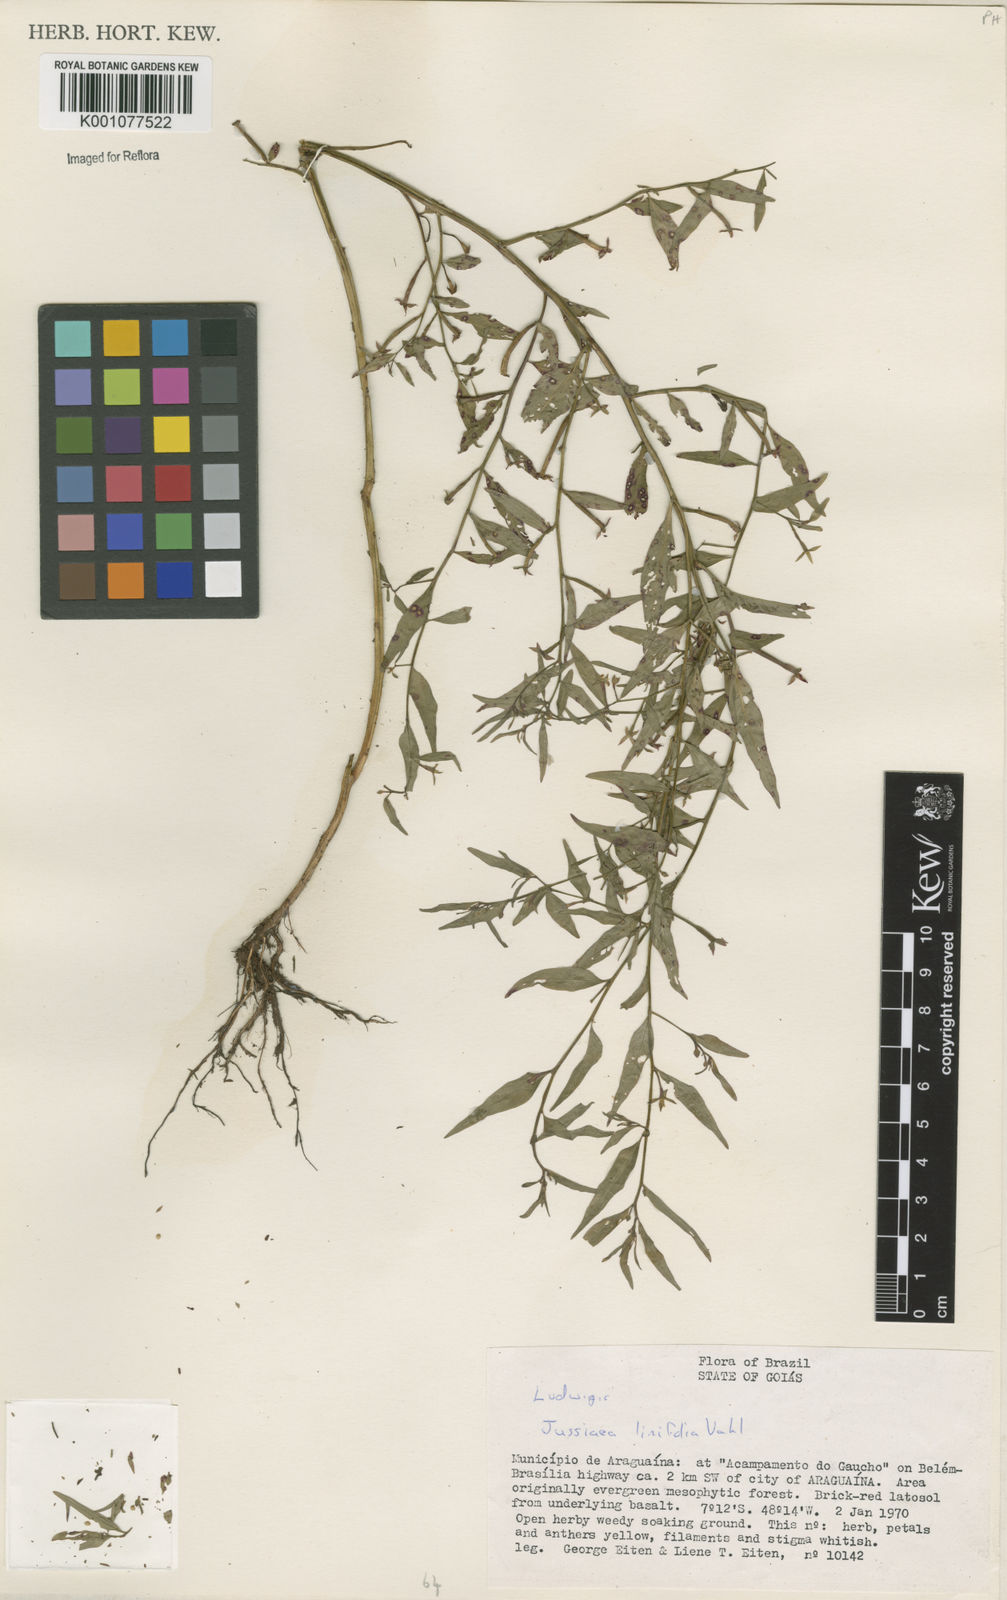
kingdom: Plantae
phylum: Tracheophyta
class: Magnoliopsida
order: Myrtales
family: Onagraceae
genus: Ludwigia
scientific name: Ludwigia hyssopifolia
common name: Linear leaf water primrose
